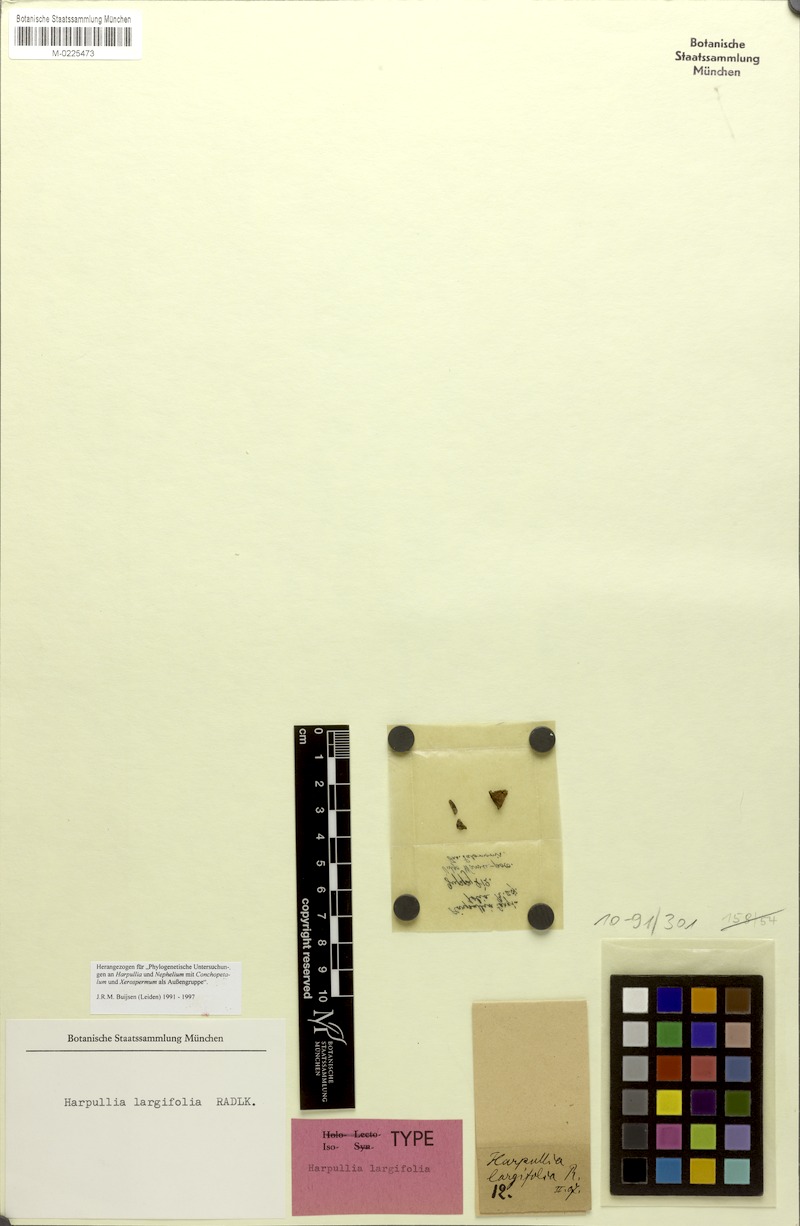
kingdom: Plantae
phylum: Tracheophyta
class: Magnoliopsida
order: Sapindales
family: Sapindaceae
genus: Harpullia
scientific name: Harpullia camptoneura
